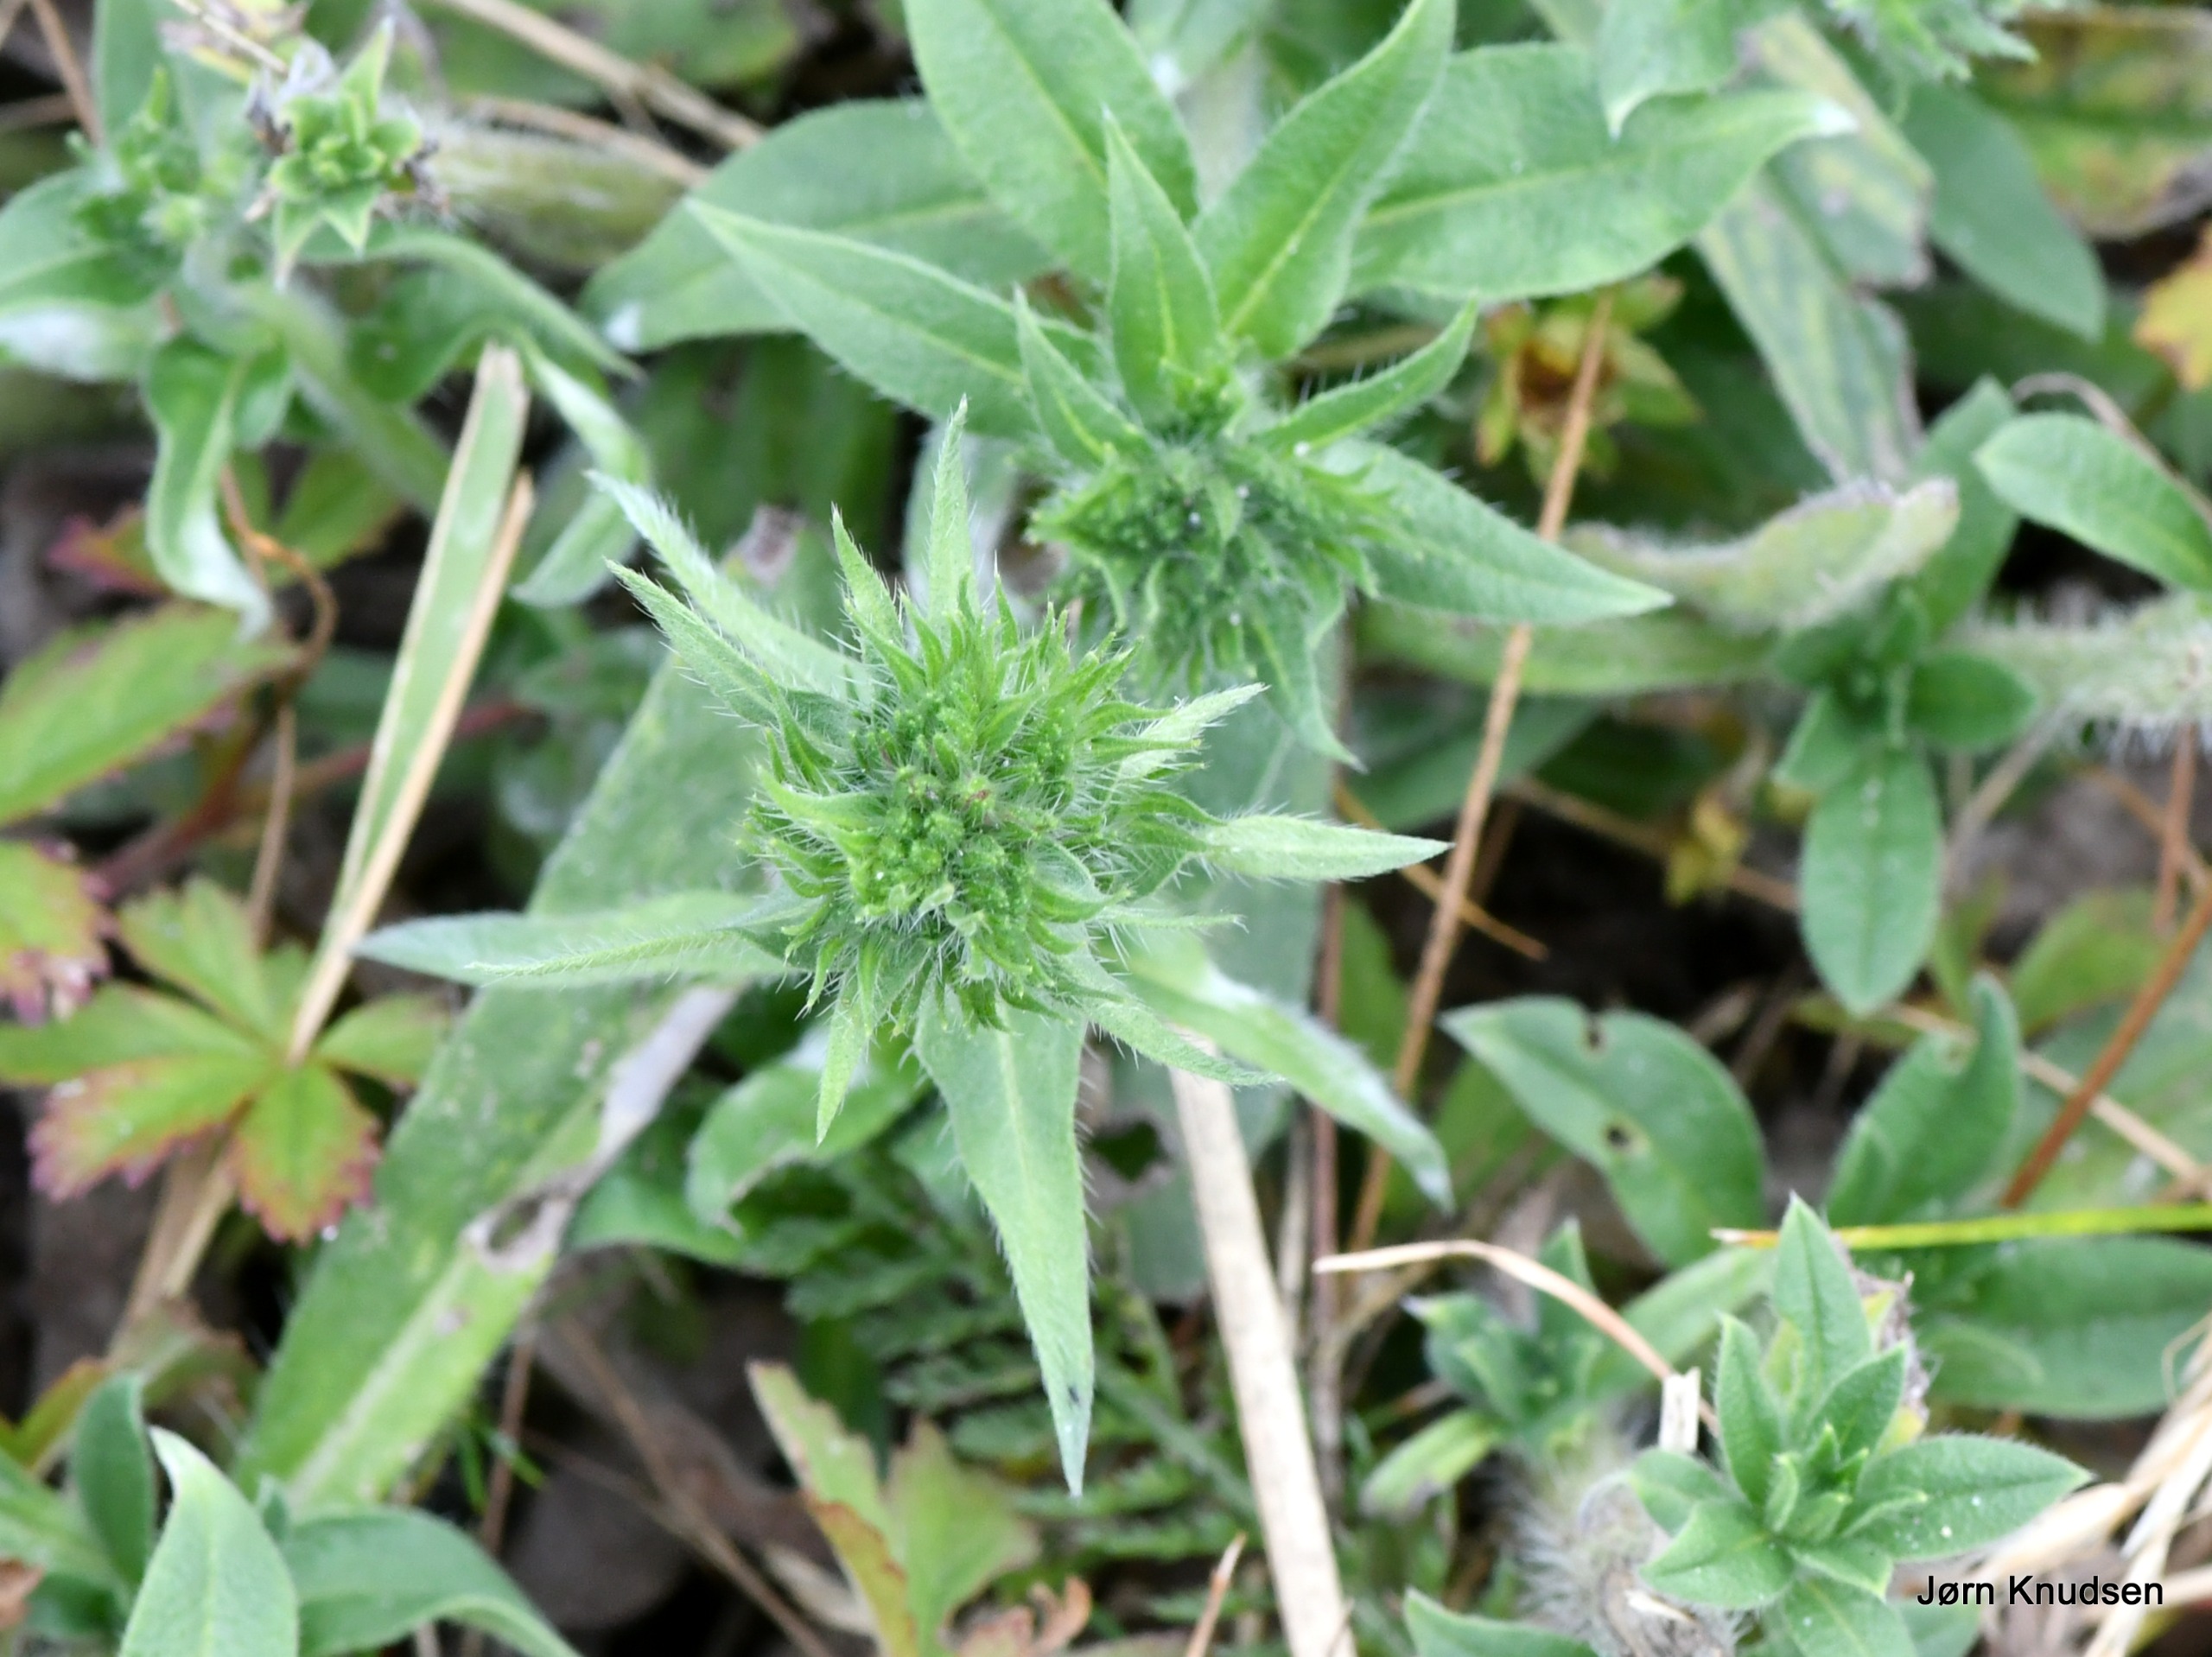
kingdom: Plantae
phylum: Tracheophyta
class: Magnoliopsida
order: Boraginales
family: Boraginaceae
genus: Echium
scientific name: Echium vulgare
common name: Slangehoved
